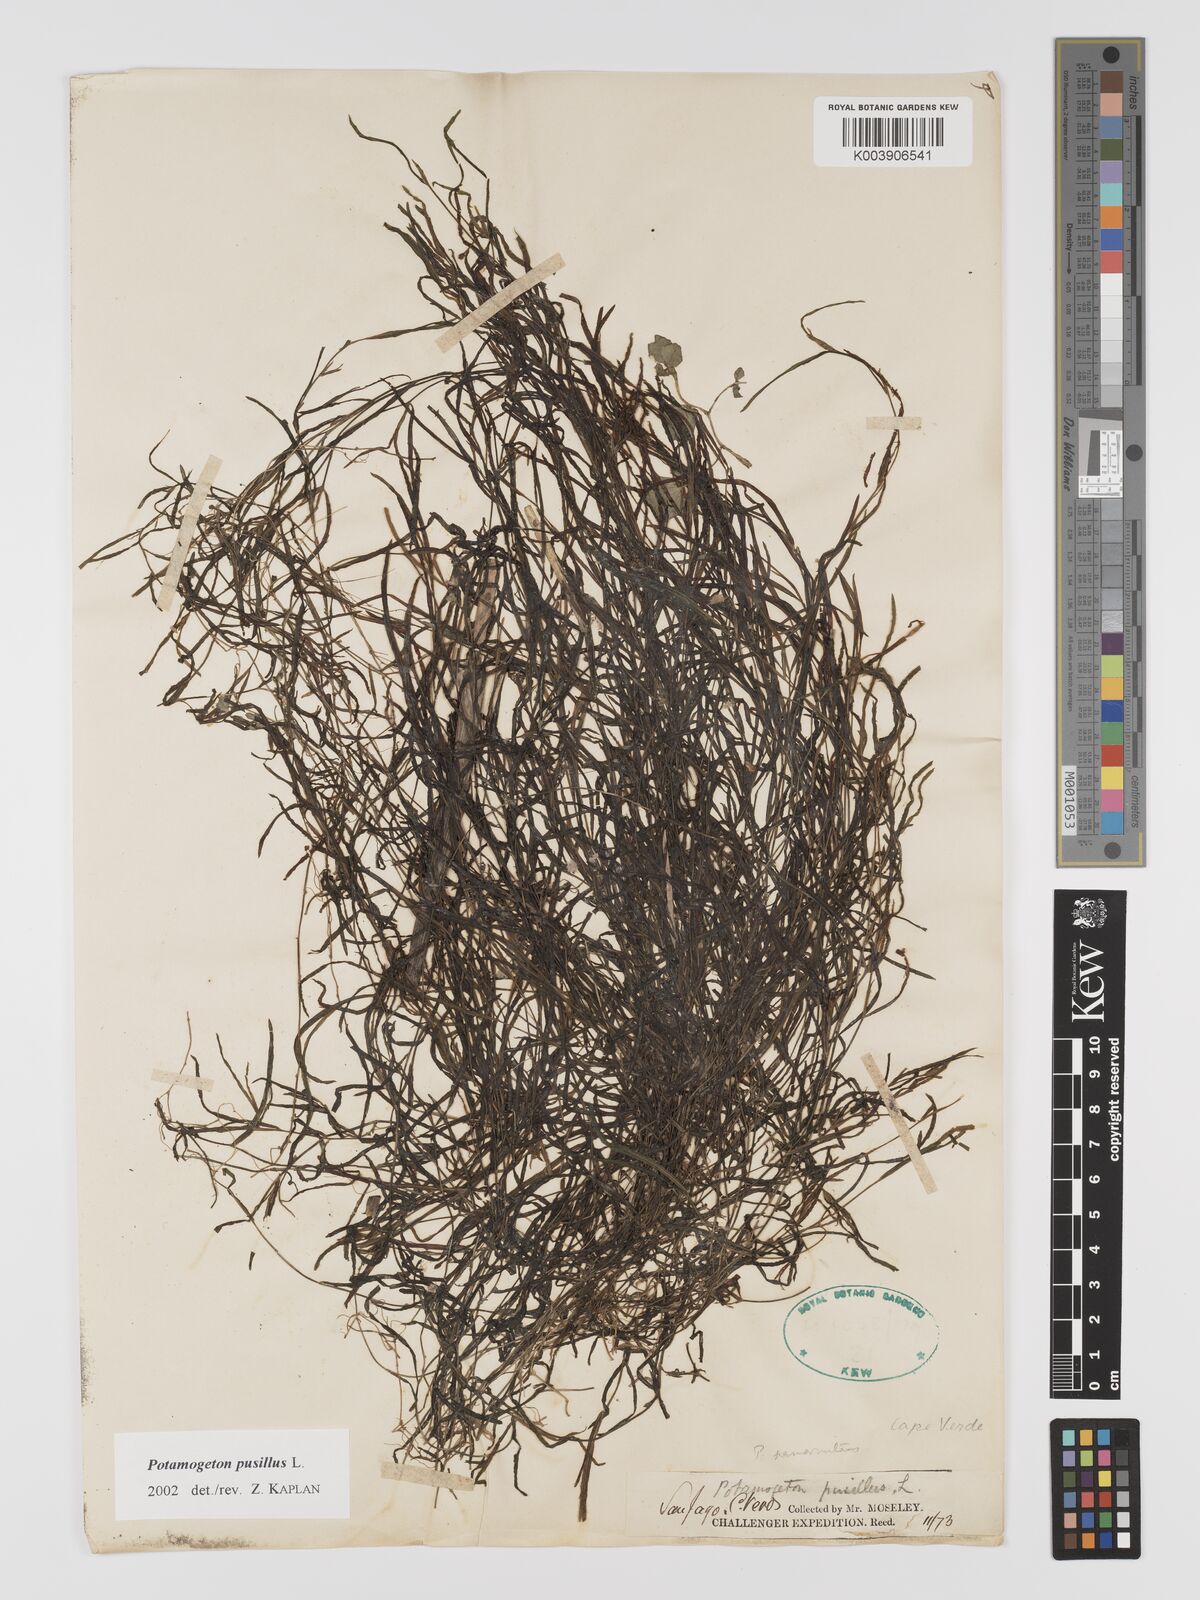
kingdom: Plantae
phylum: Tracheophyta
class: Liliopsida
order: Alismatales
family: Potamogetonaceae
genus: Potamogeton
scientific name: Potamogeton pusillus
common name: Lesser pondweed
